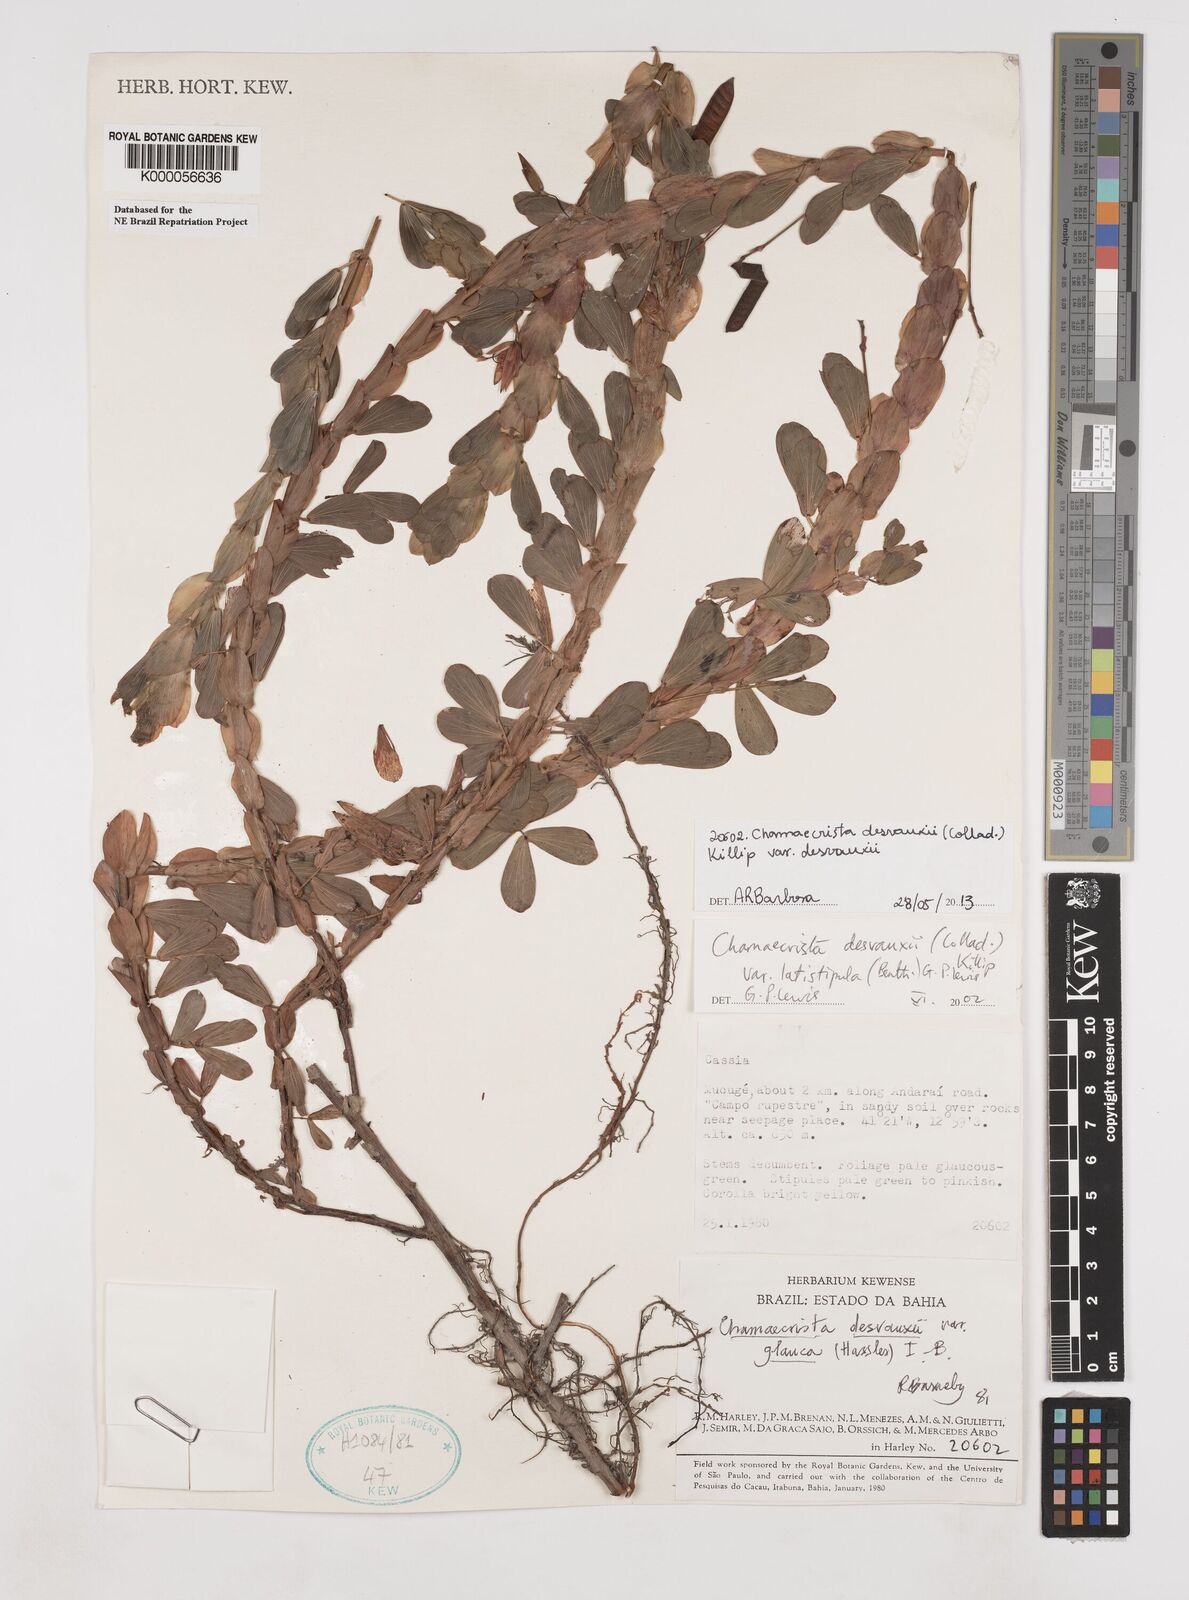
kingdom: Plantae
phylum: Tracheophyta
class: Magnoliopsida
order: Fabales
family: Fabaceae
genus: Chamaecrista
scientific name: Chamaecrista desvauxii
